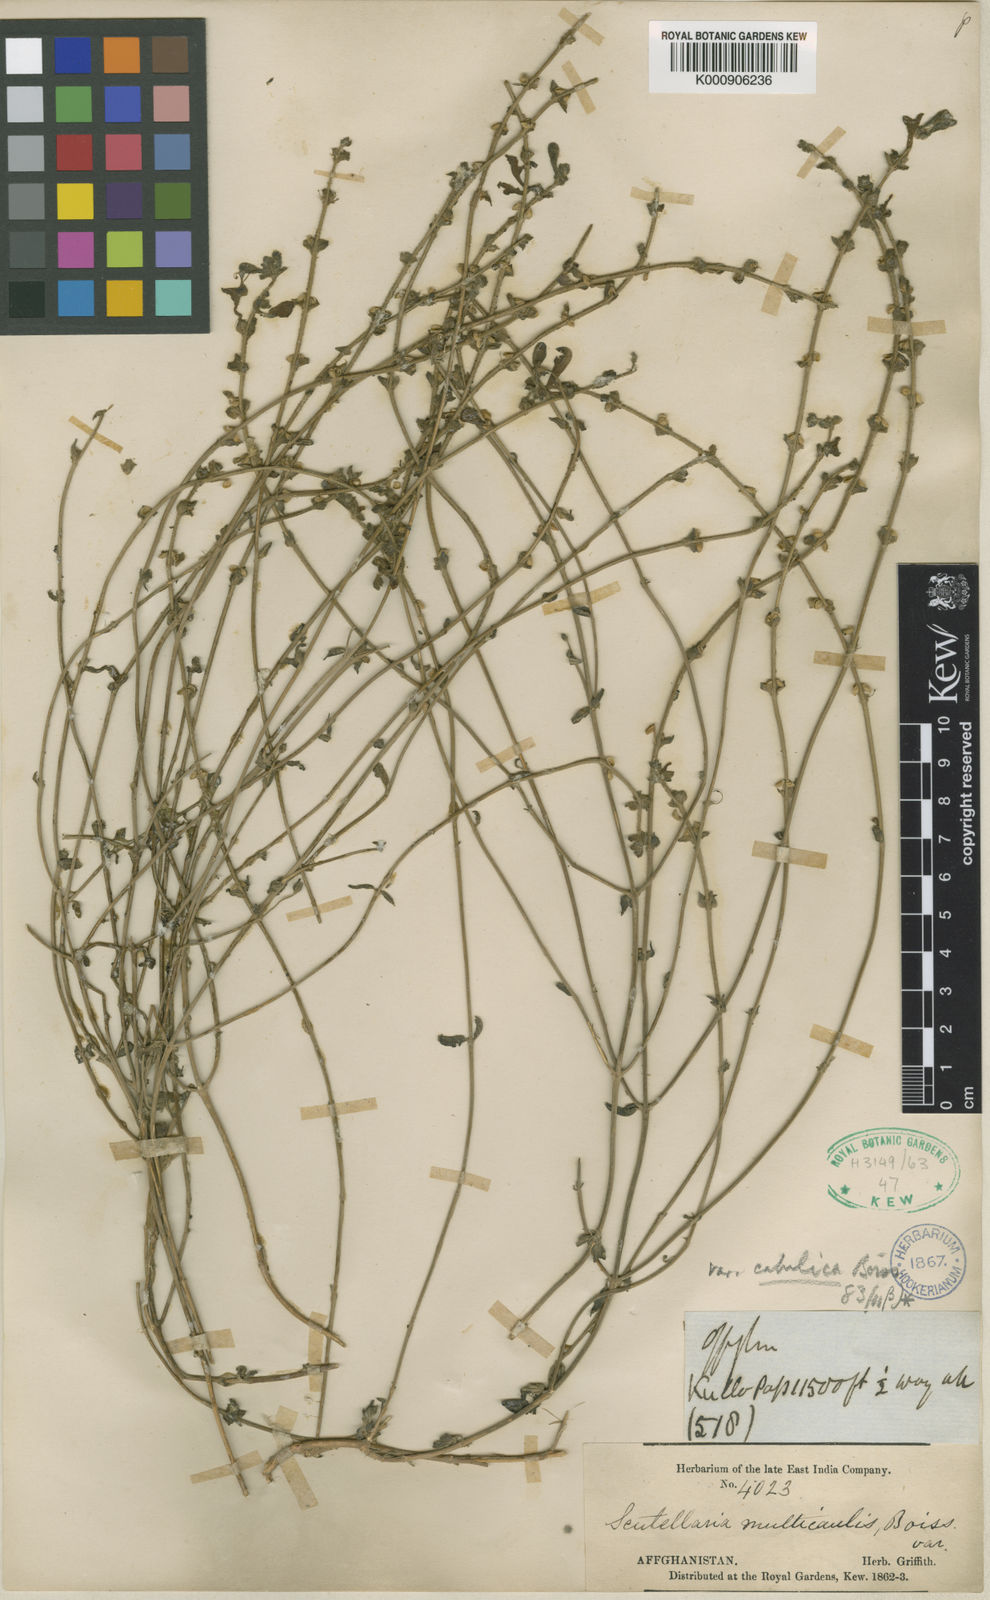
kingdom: Plantae
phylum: Tracheophyta
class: Magnoliopsida
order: Lamiales
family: Lamiaceae
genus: Scutellaria
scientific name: Scutellaria multicaulis
